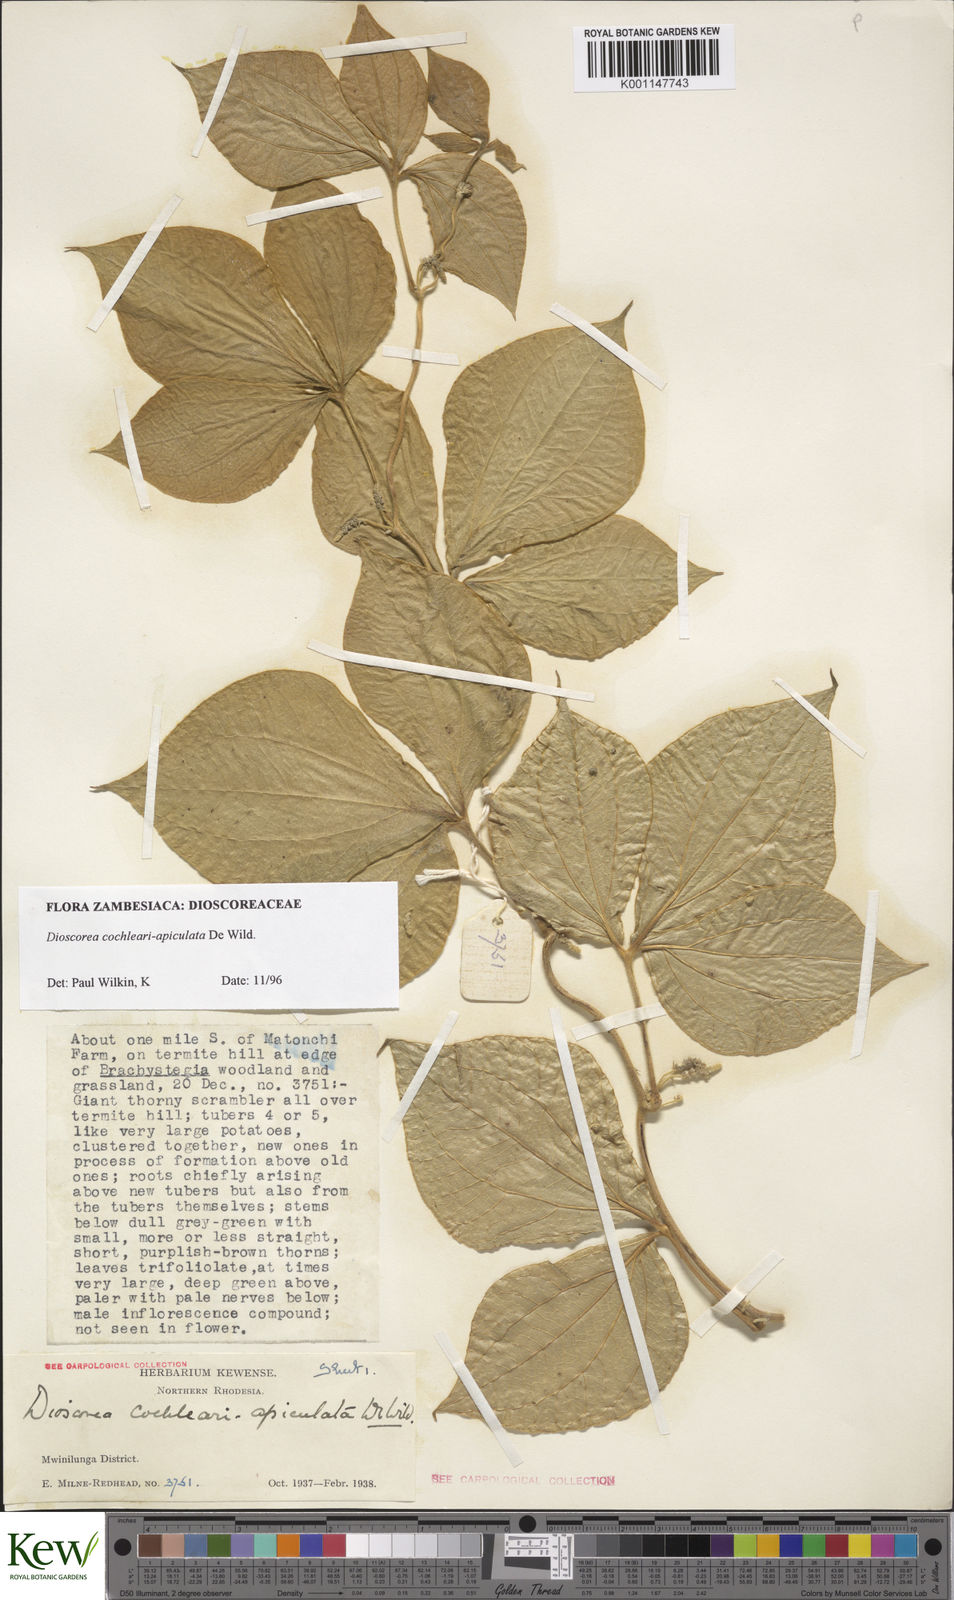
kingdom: Plantae
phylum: Tracheophyta
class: Liliopsida
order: Dioscoreales
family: Dioscoreaceae
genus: Dioscorea
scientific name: Dioscorea cochleariapiculata
